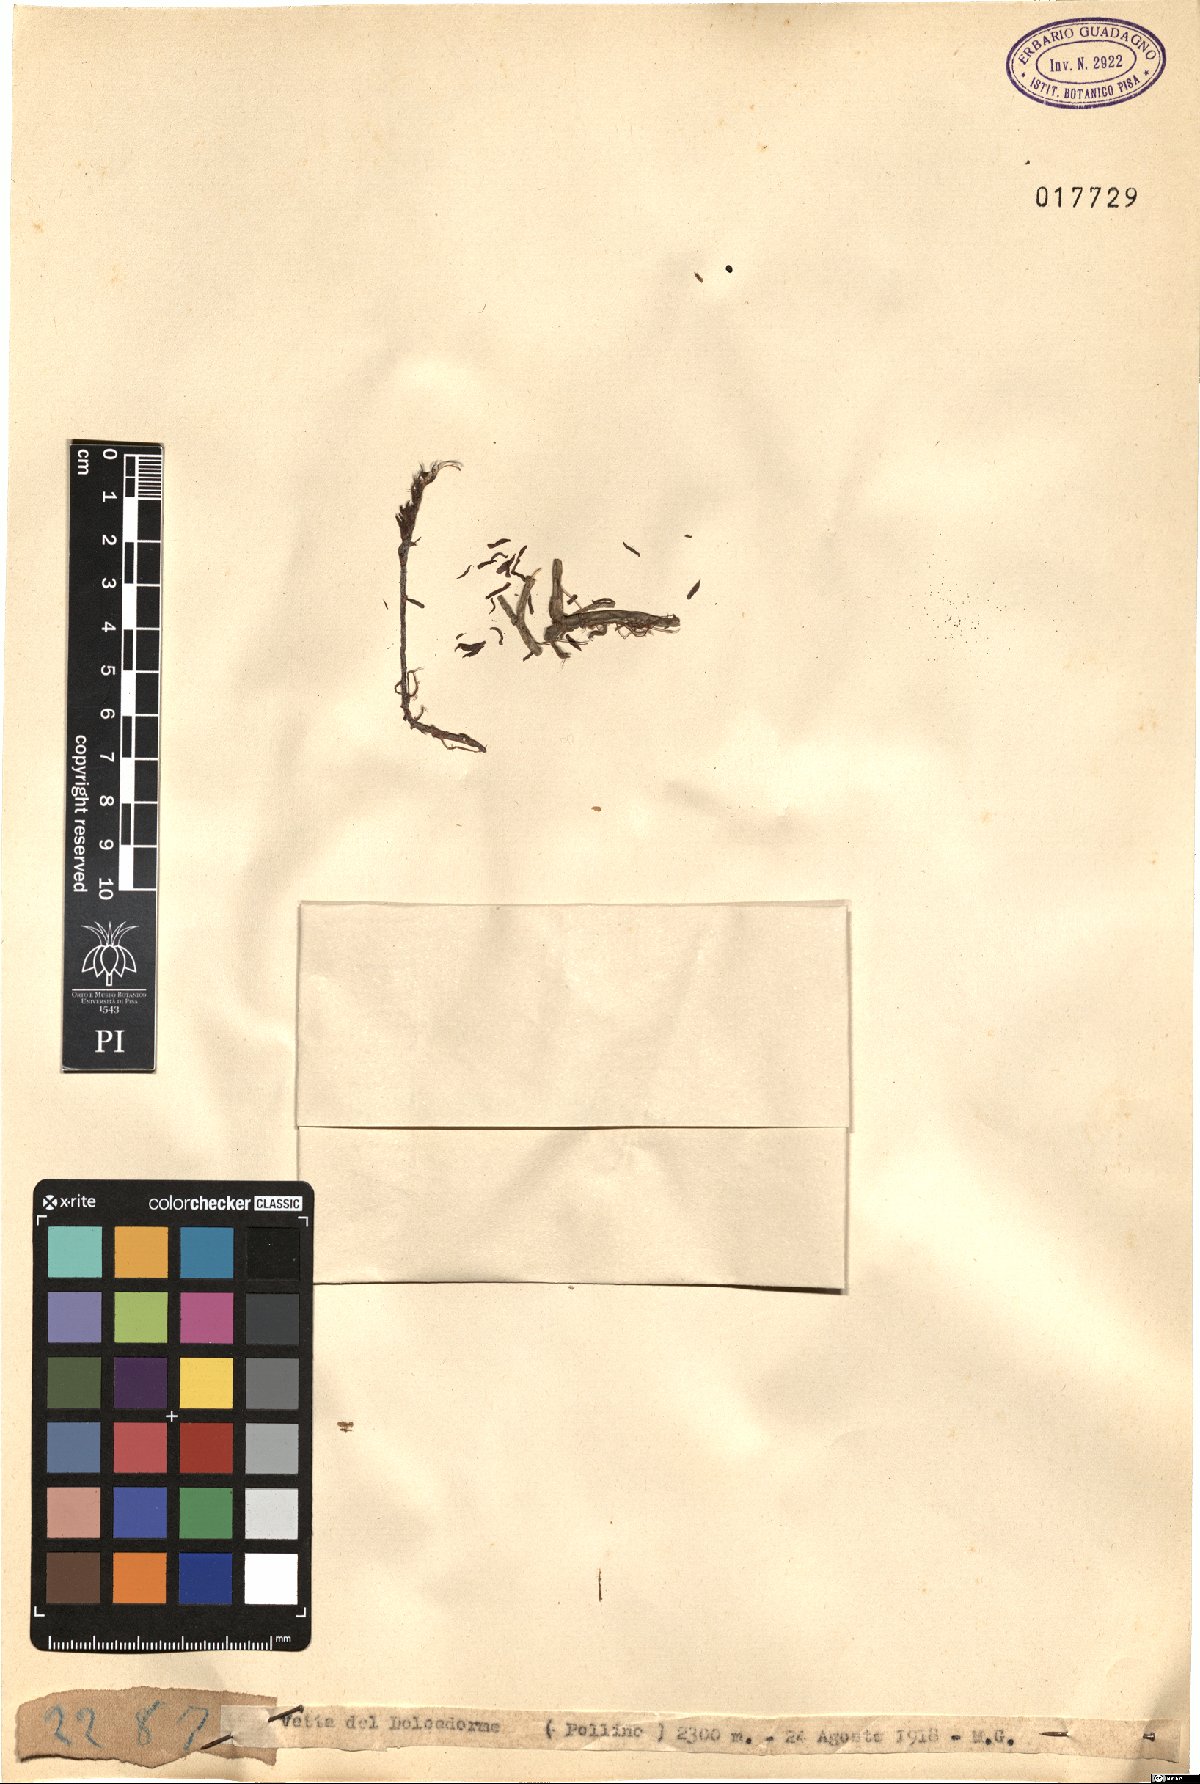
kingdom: Plantae
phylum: Tracheophyta
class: Magnoliopsida
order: Saxifragales
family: Crassulaceae
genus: Sedum
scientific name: Sedum
